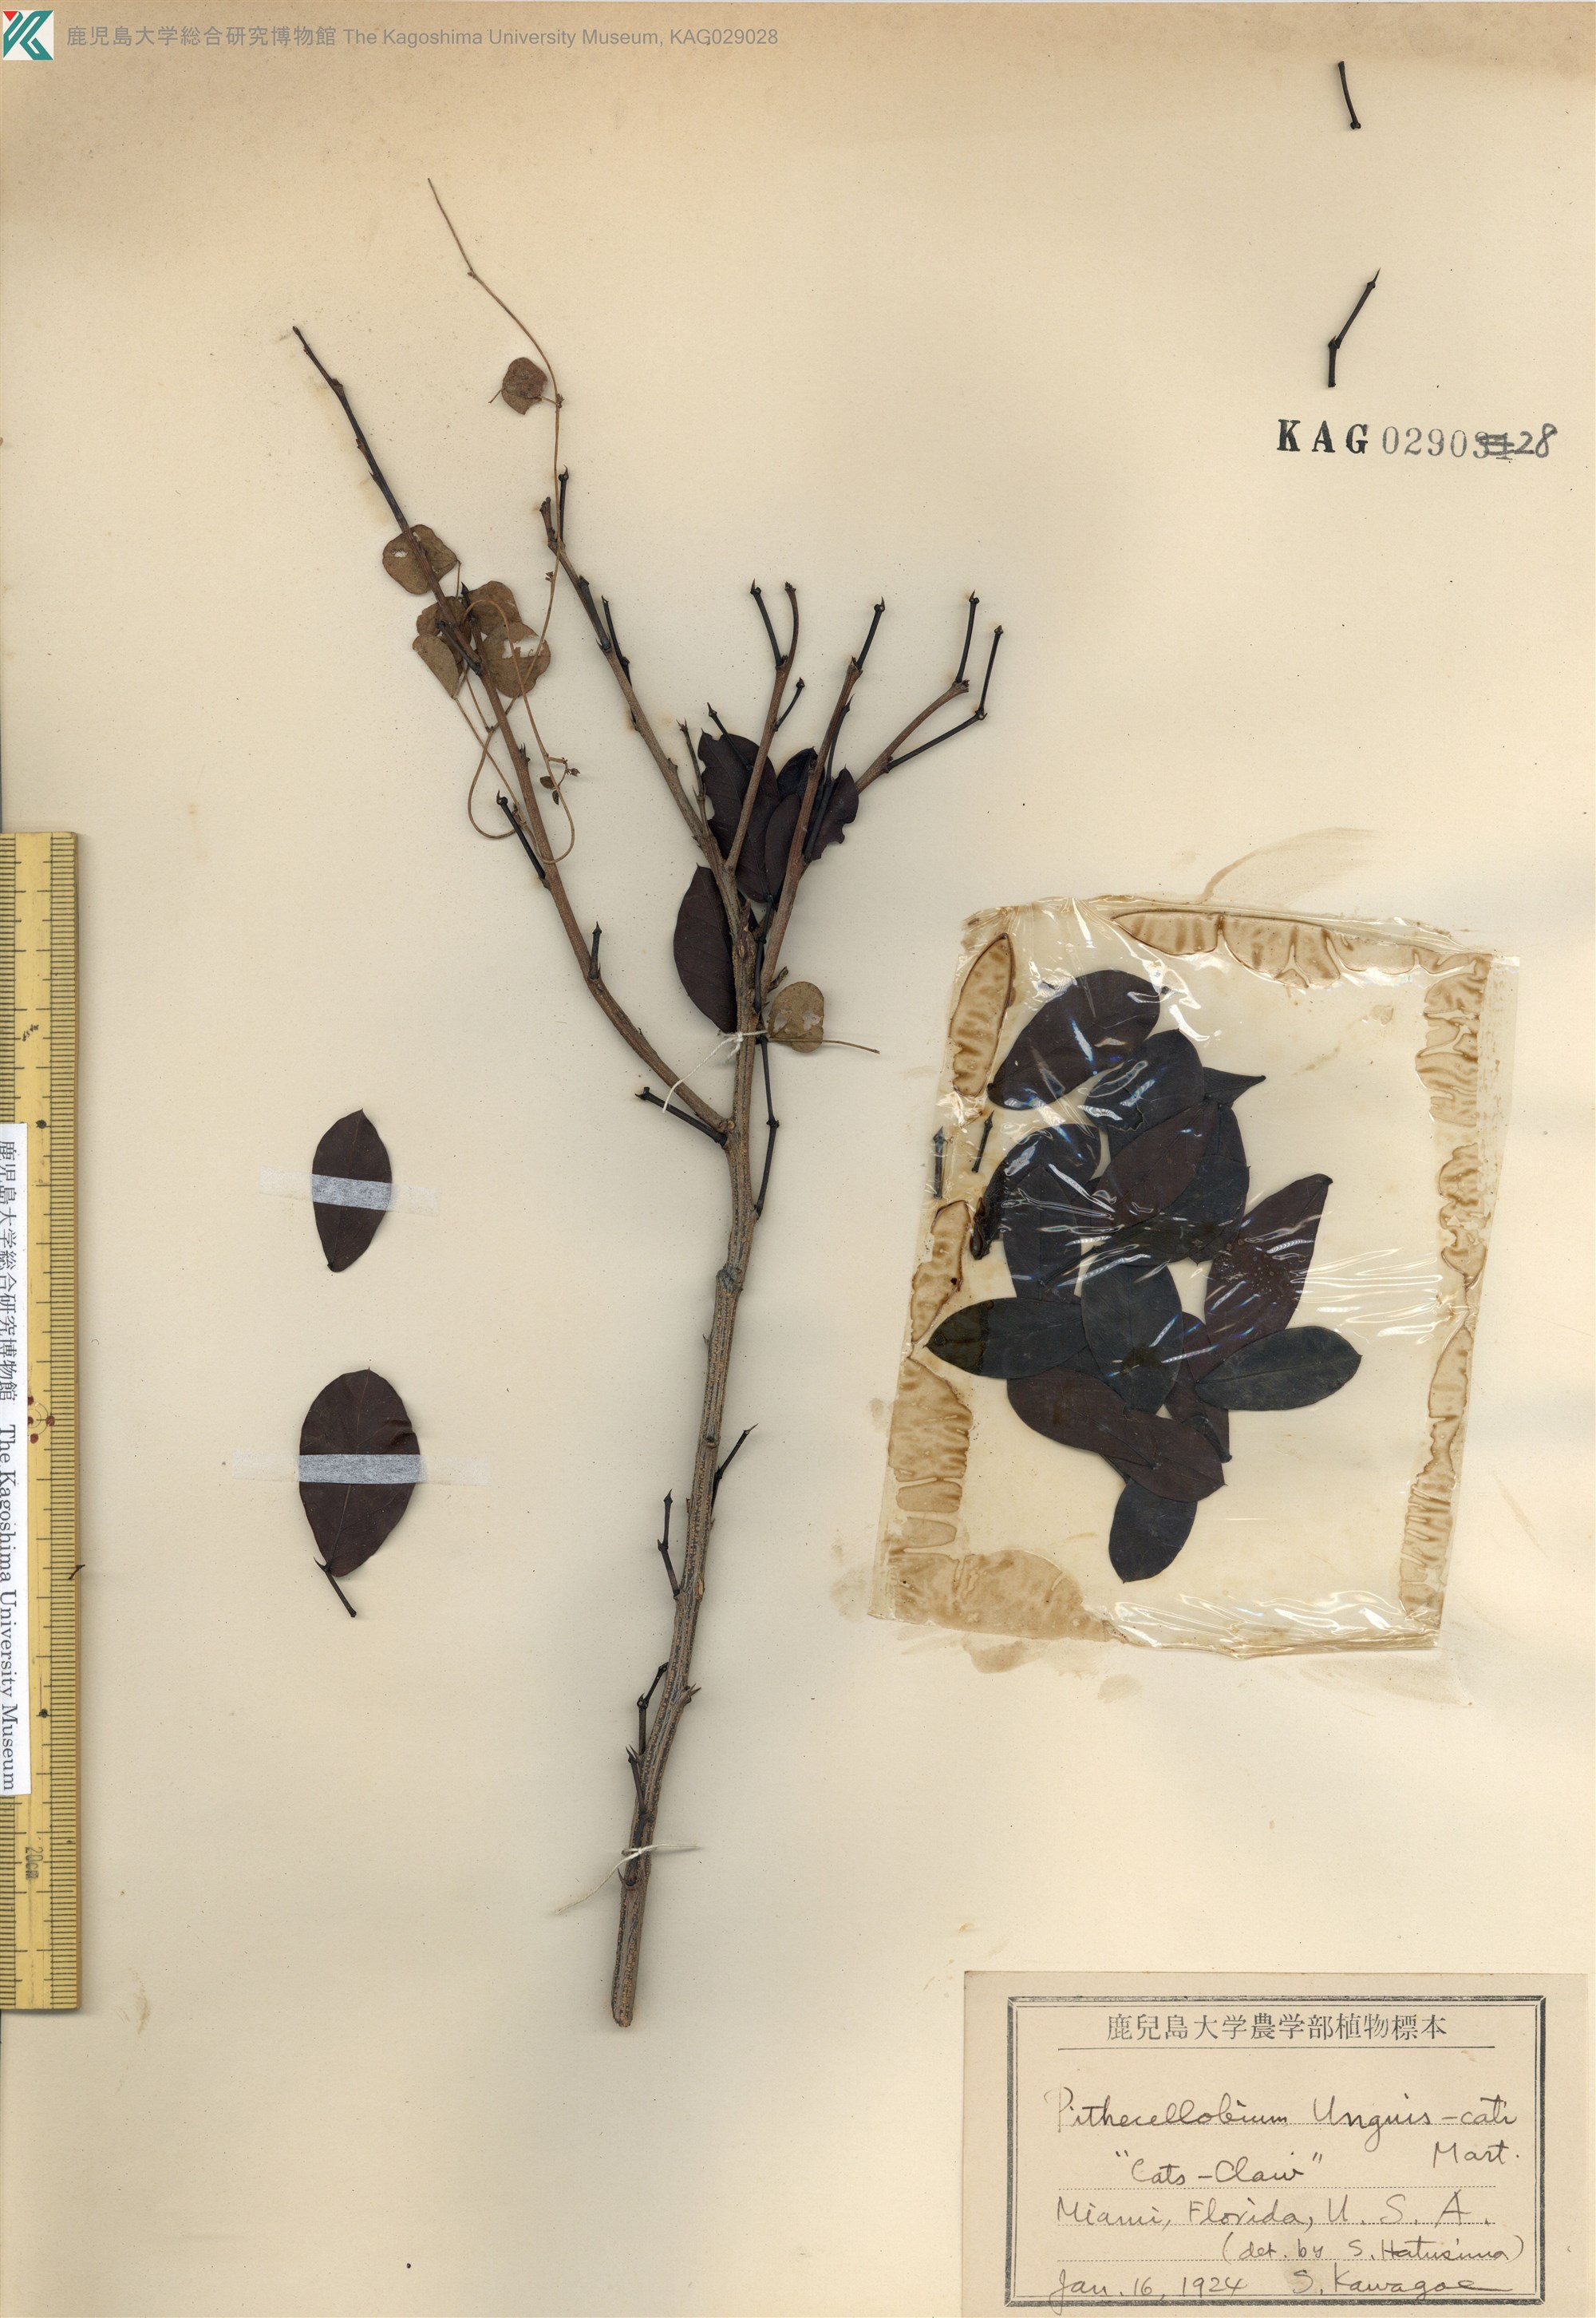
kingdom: Plantae
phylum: Tracheophyta
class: Magnoliopsida
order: Fabales
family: Fabaceae
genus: Pithecellobium
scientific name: Pithecellobium
